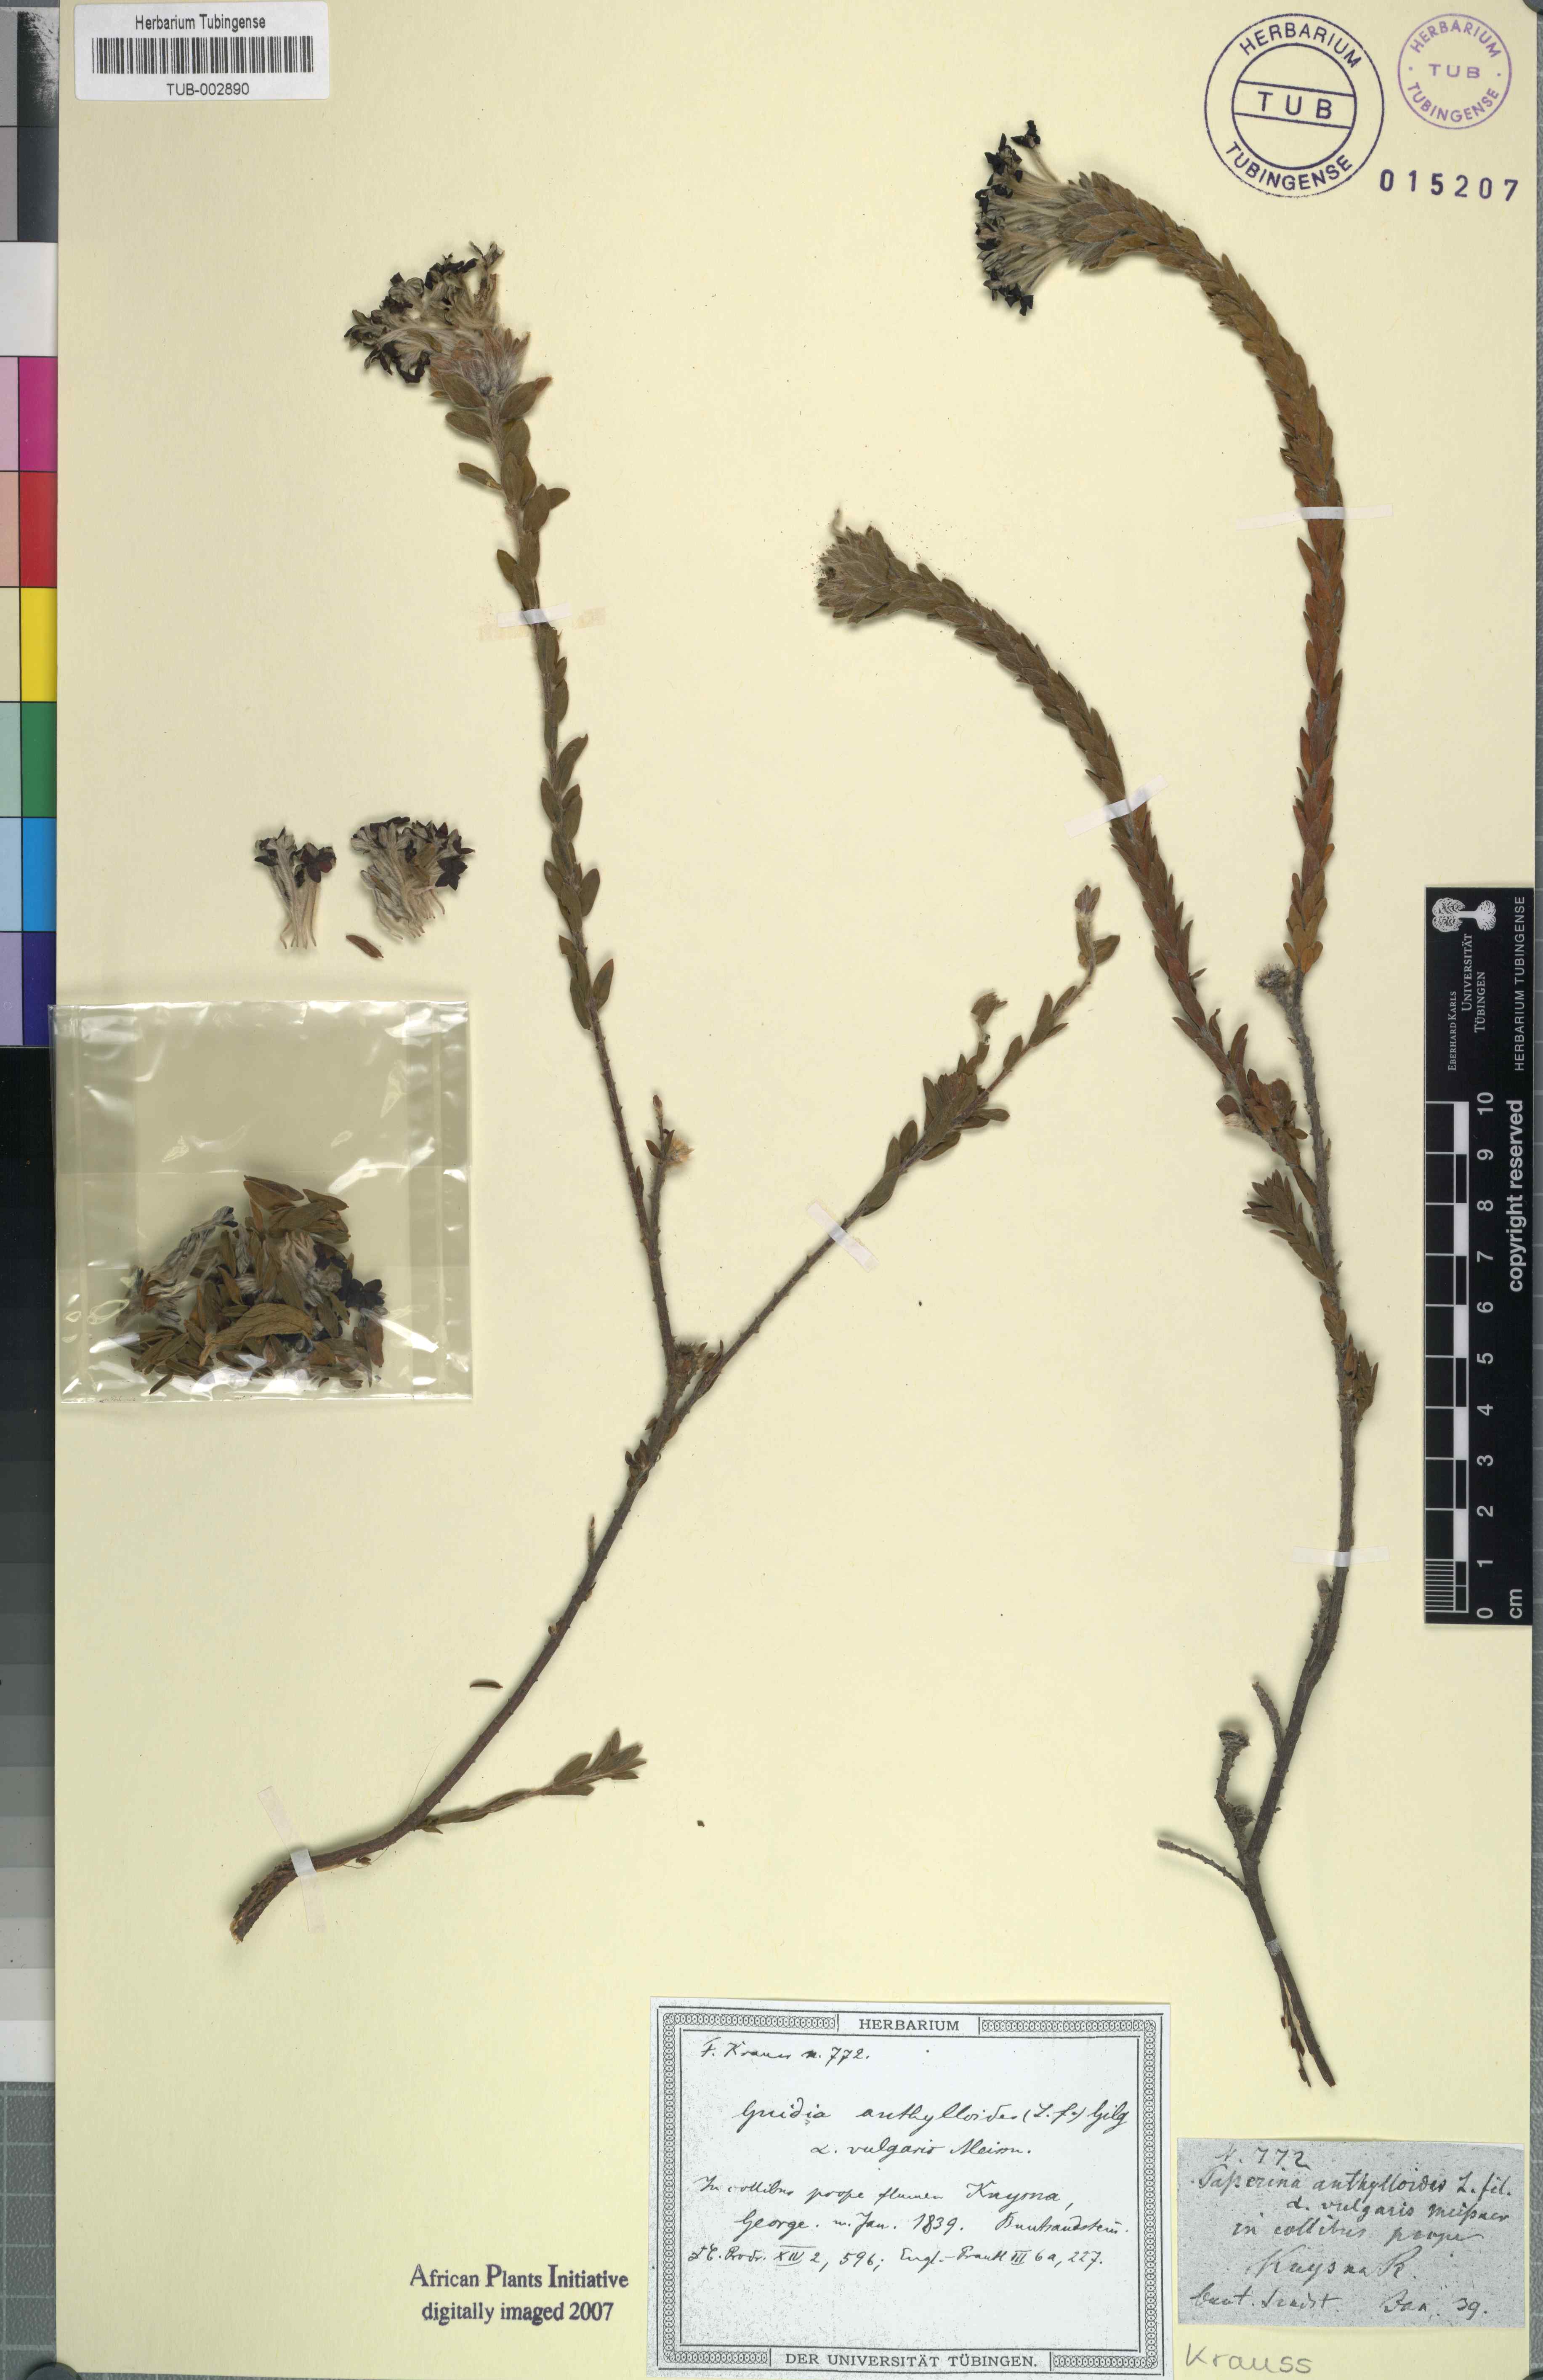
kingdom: Plantae
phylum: Tracheophyta
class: Magnoliopsida
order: Malvales
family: Thymelaeaceae
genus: Gnidia
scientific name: Gnidia anthylloides
